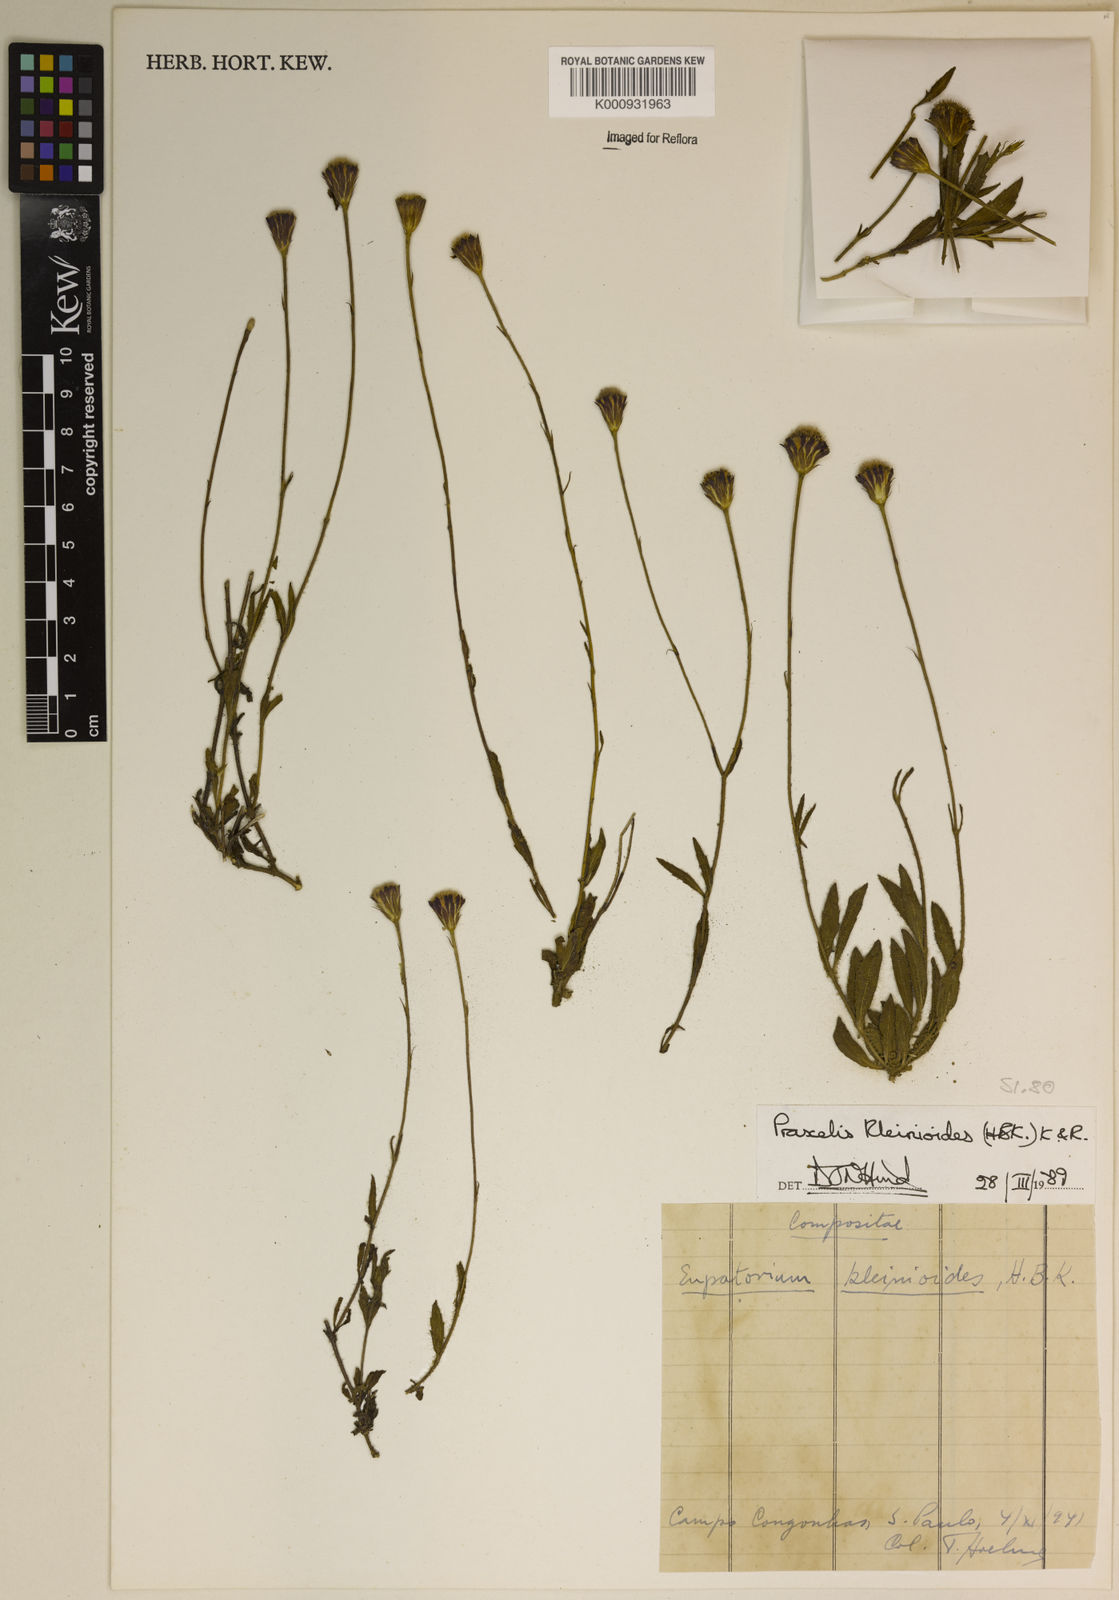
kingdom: Plantae
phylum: Tracheophyta
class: Magnoliopsida
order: Asterales
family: Asteraceae
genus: Praxelis
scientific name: Praxelis kleinioides
